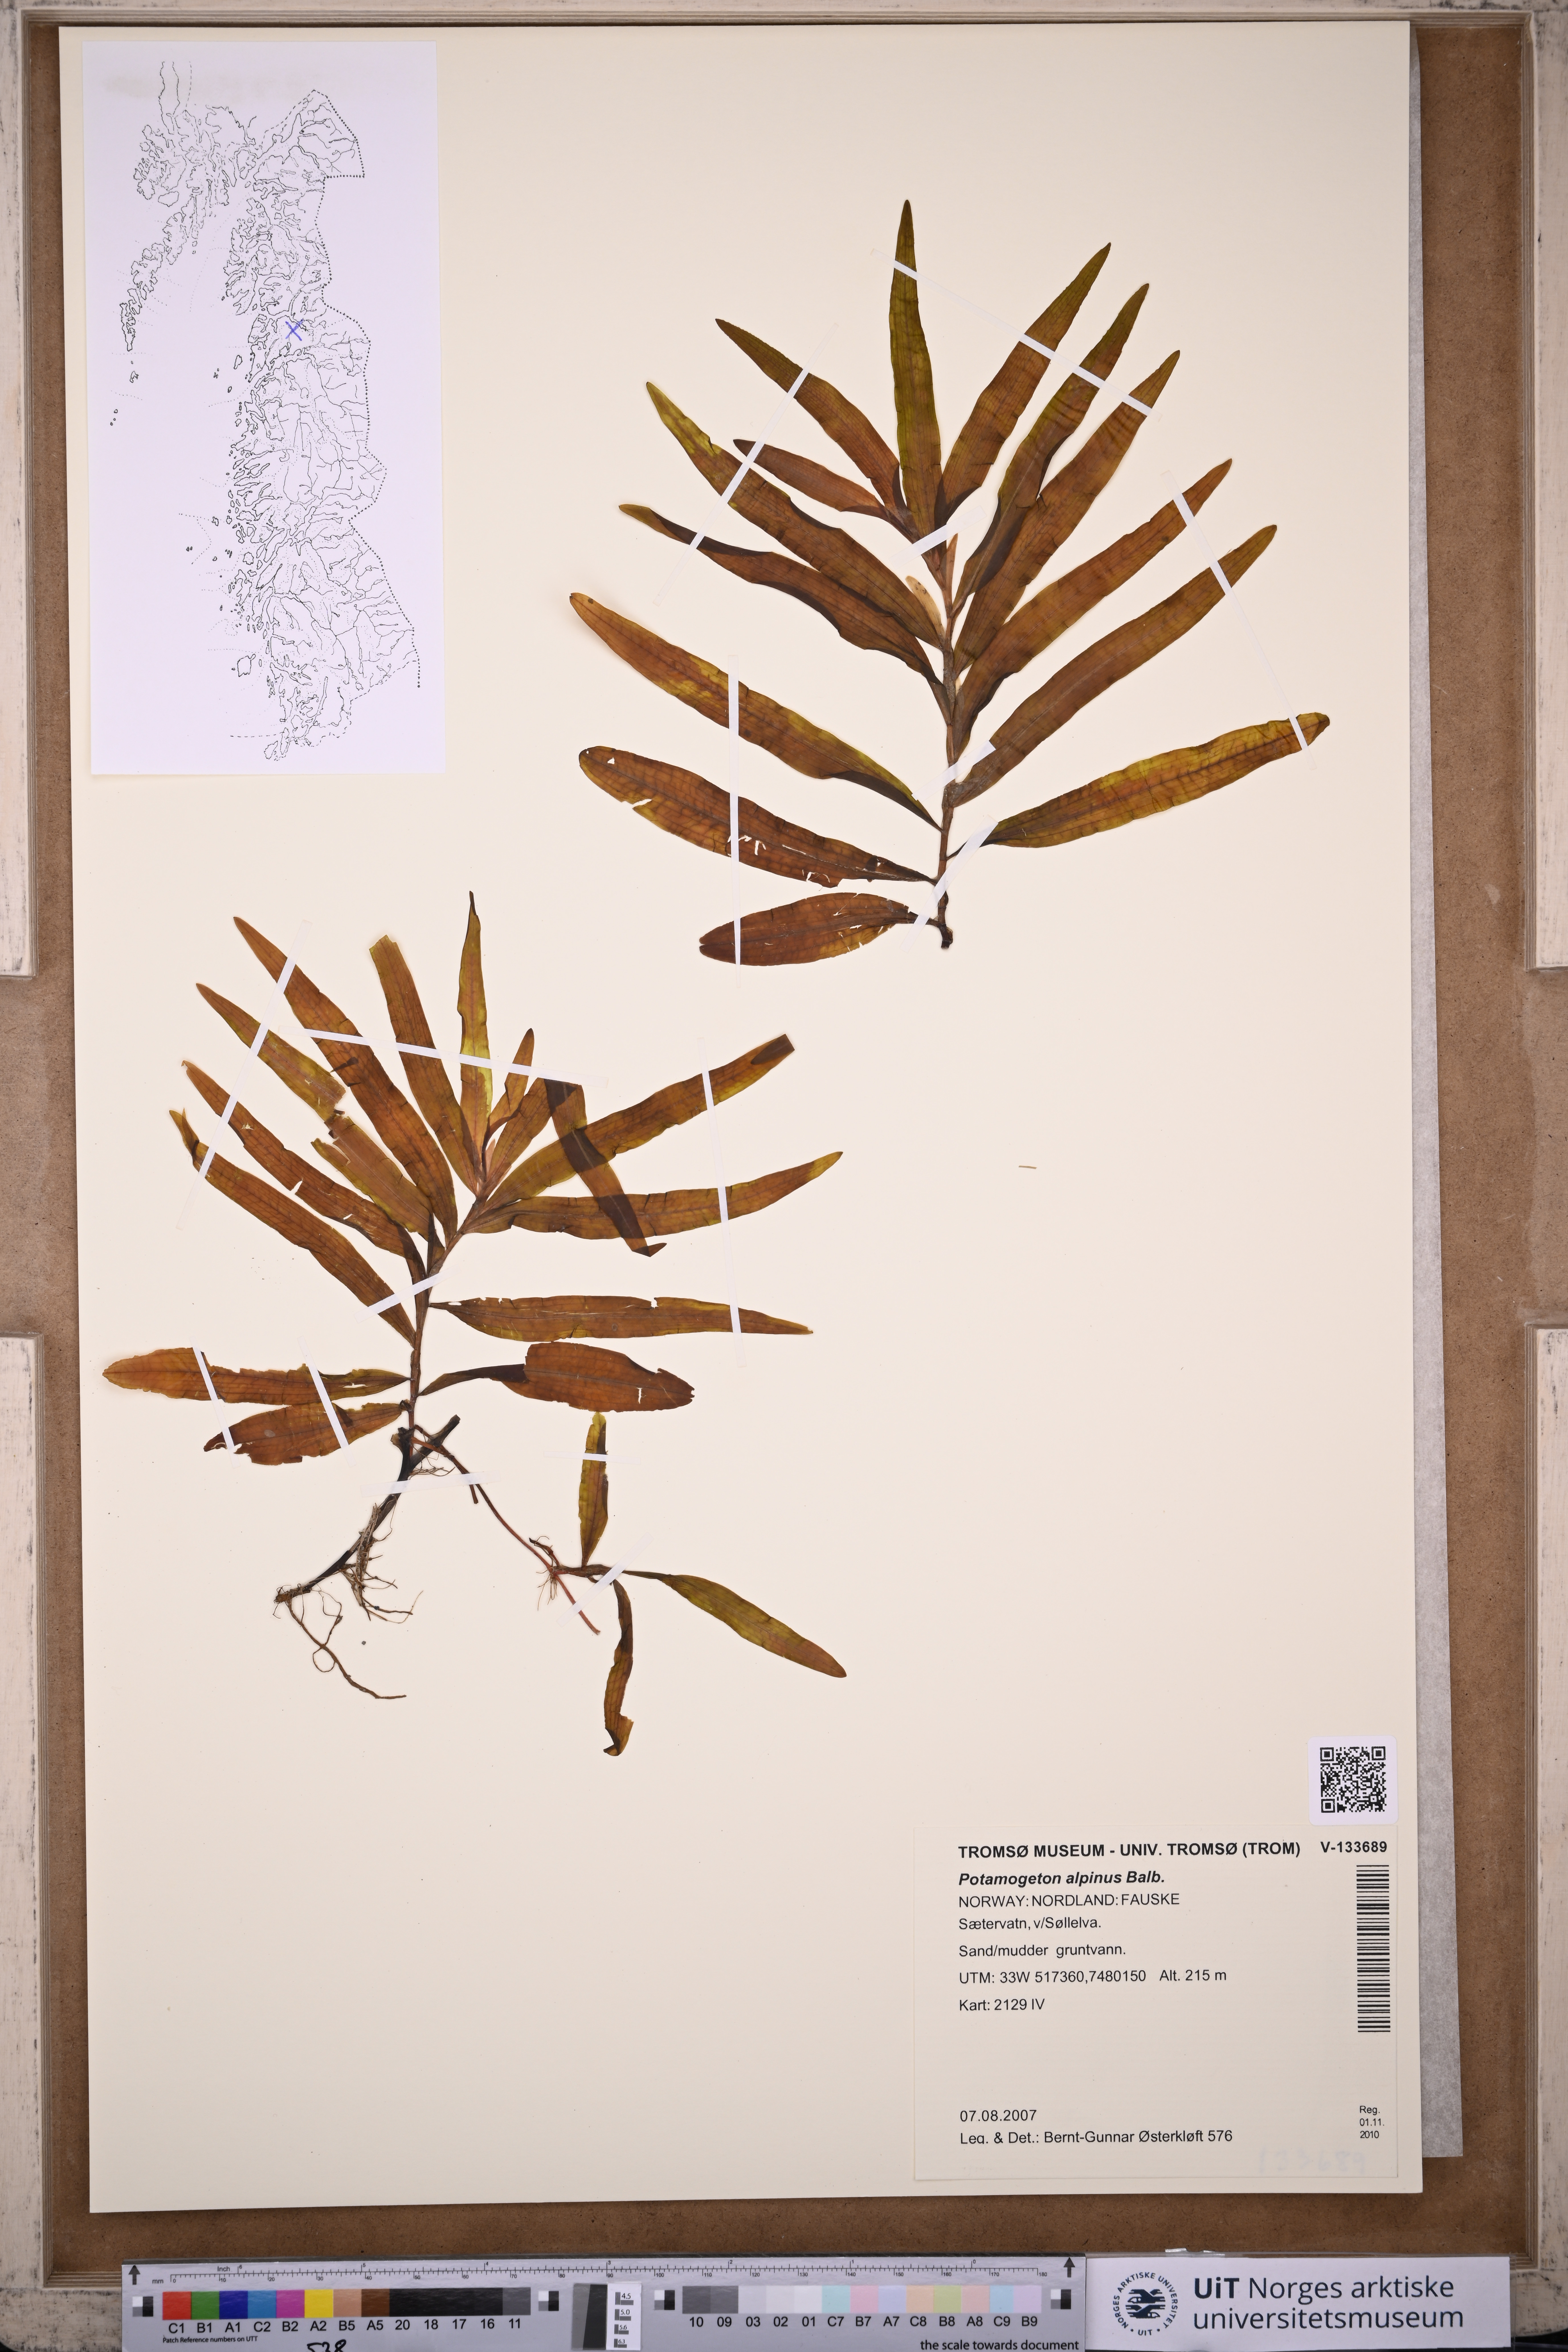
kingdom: Plantae
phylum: Tracheophyta
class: Liliopsida
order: Alismatales
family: Potamogetonaceae
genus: Potamogeton
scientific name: Potamogeton alpinus
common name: Red pondweed
